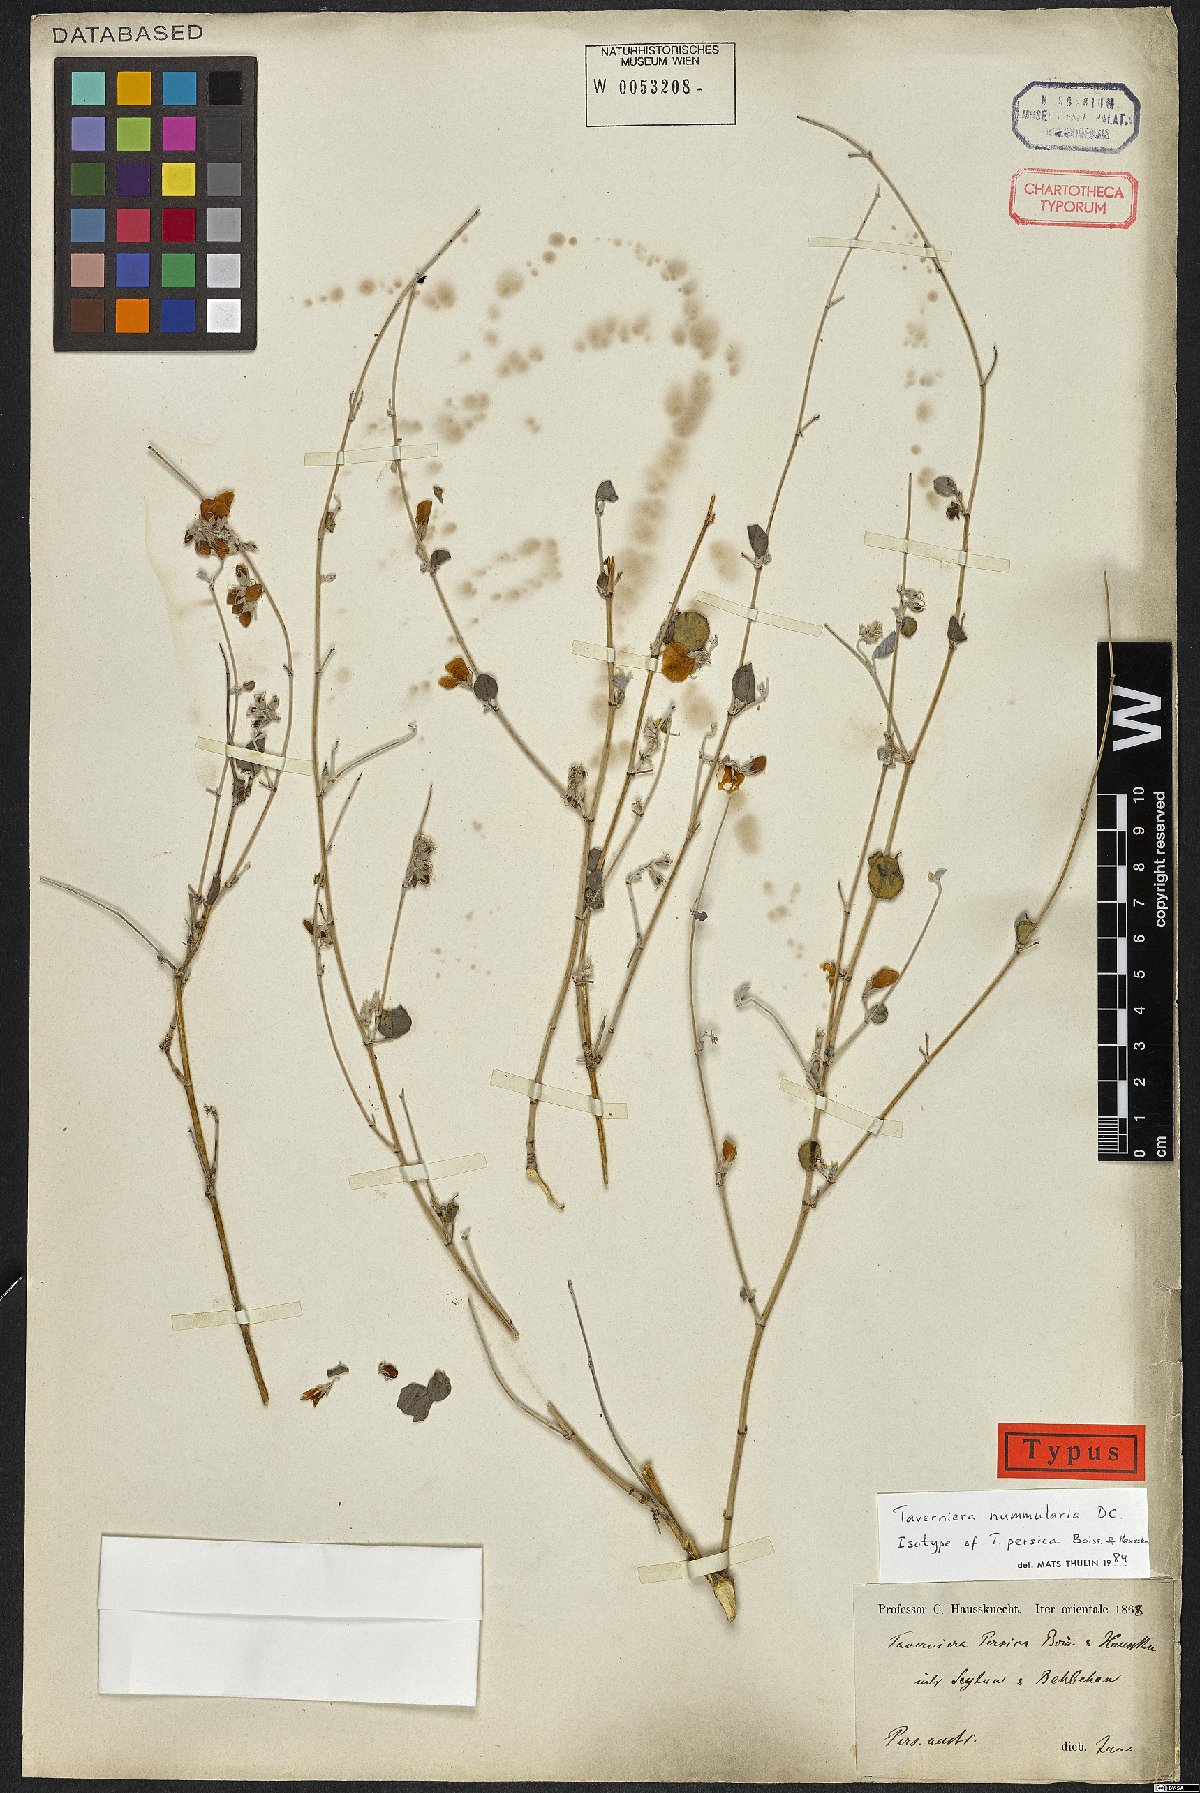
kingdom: Plantae
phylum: Tracheophyta
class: Magnoliopsida
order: Fabales
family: Fabaceae
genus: Taverniera
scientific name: Taverniera nummularia
